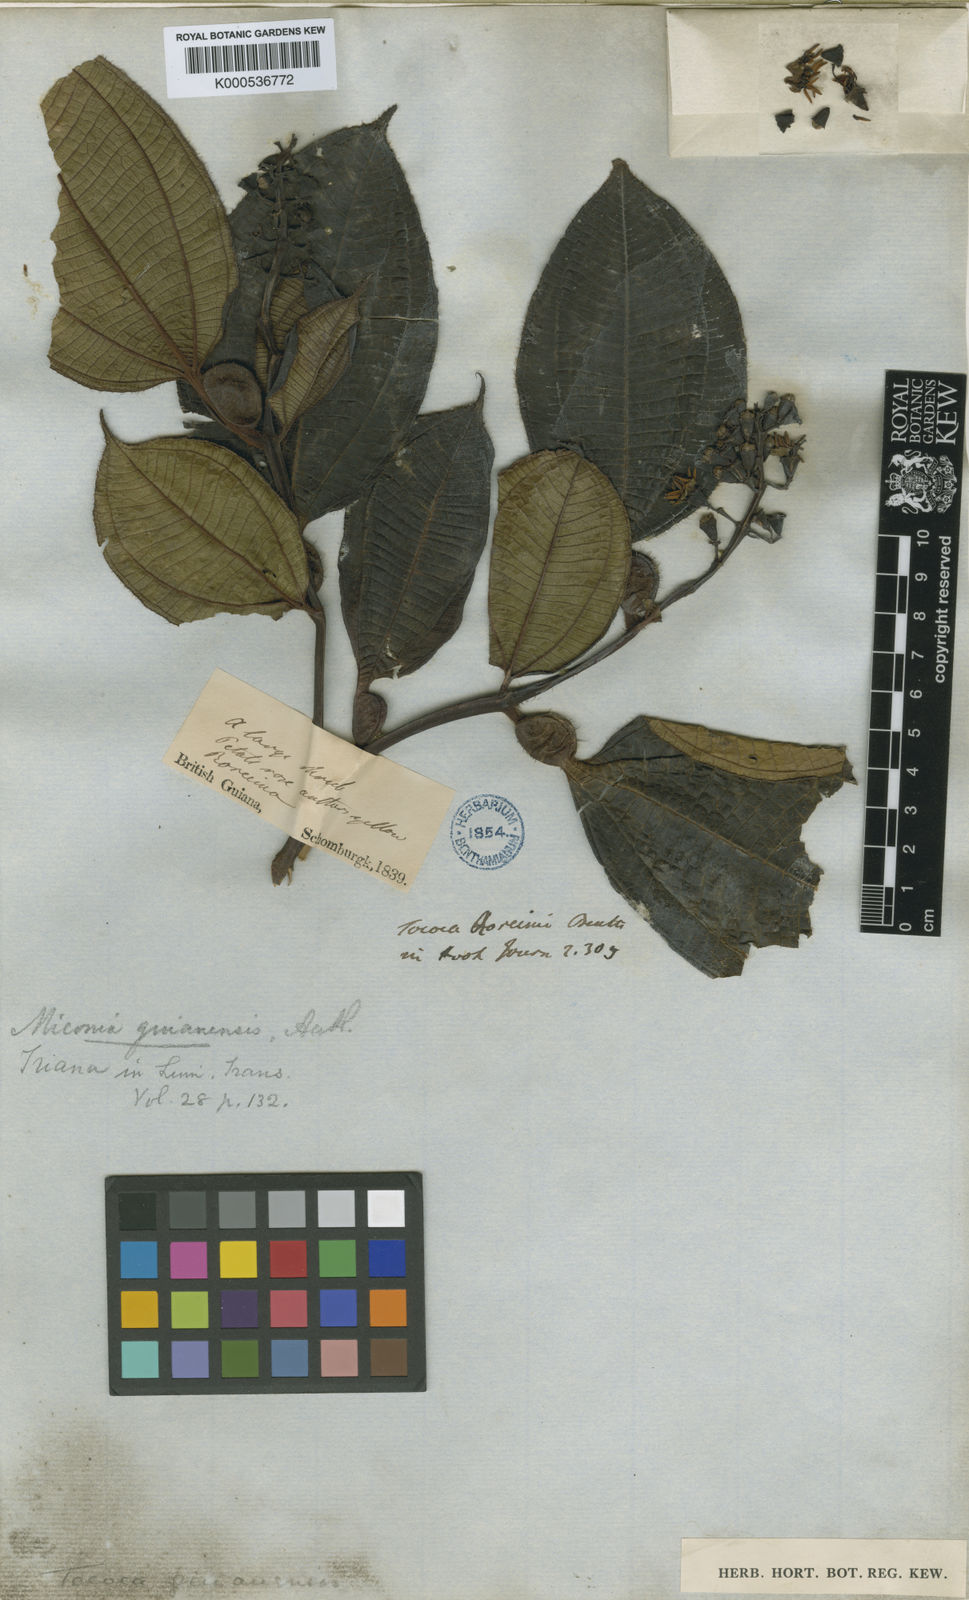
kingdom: Plantae
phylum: Tracheophyta
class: Magnoliopsida
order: Myrtales
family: Melastomataceae
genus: Miconia
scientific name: Miconia tococa
